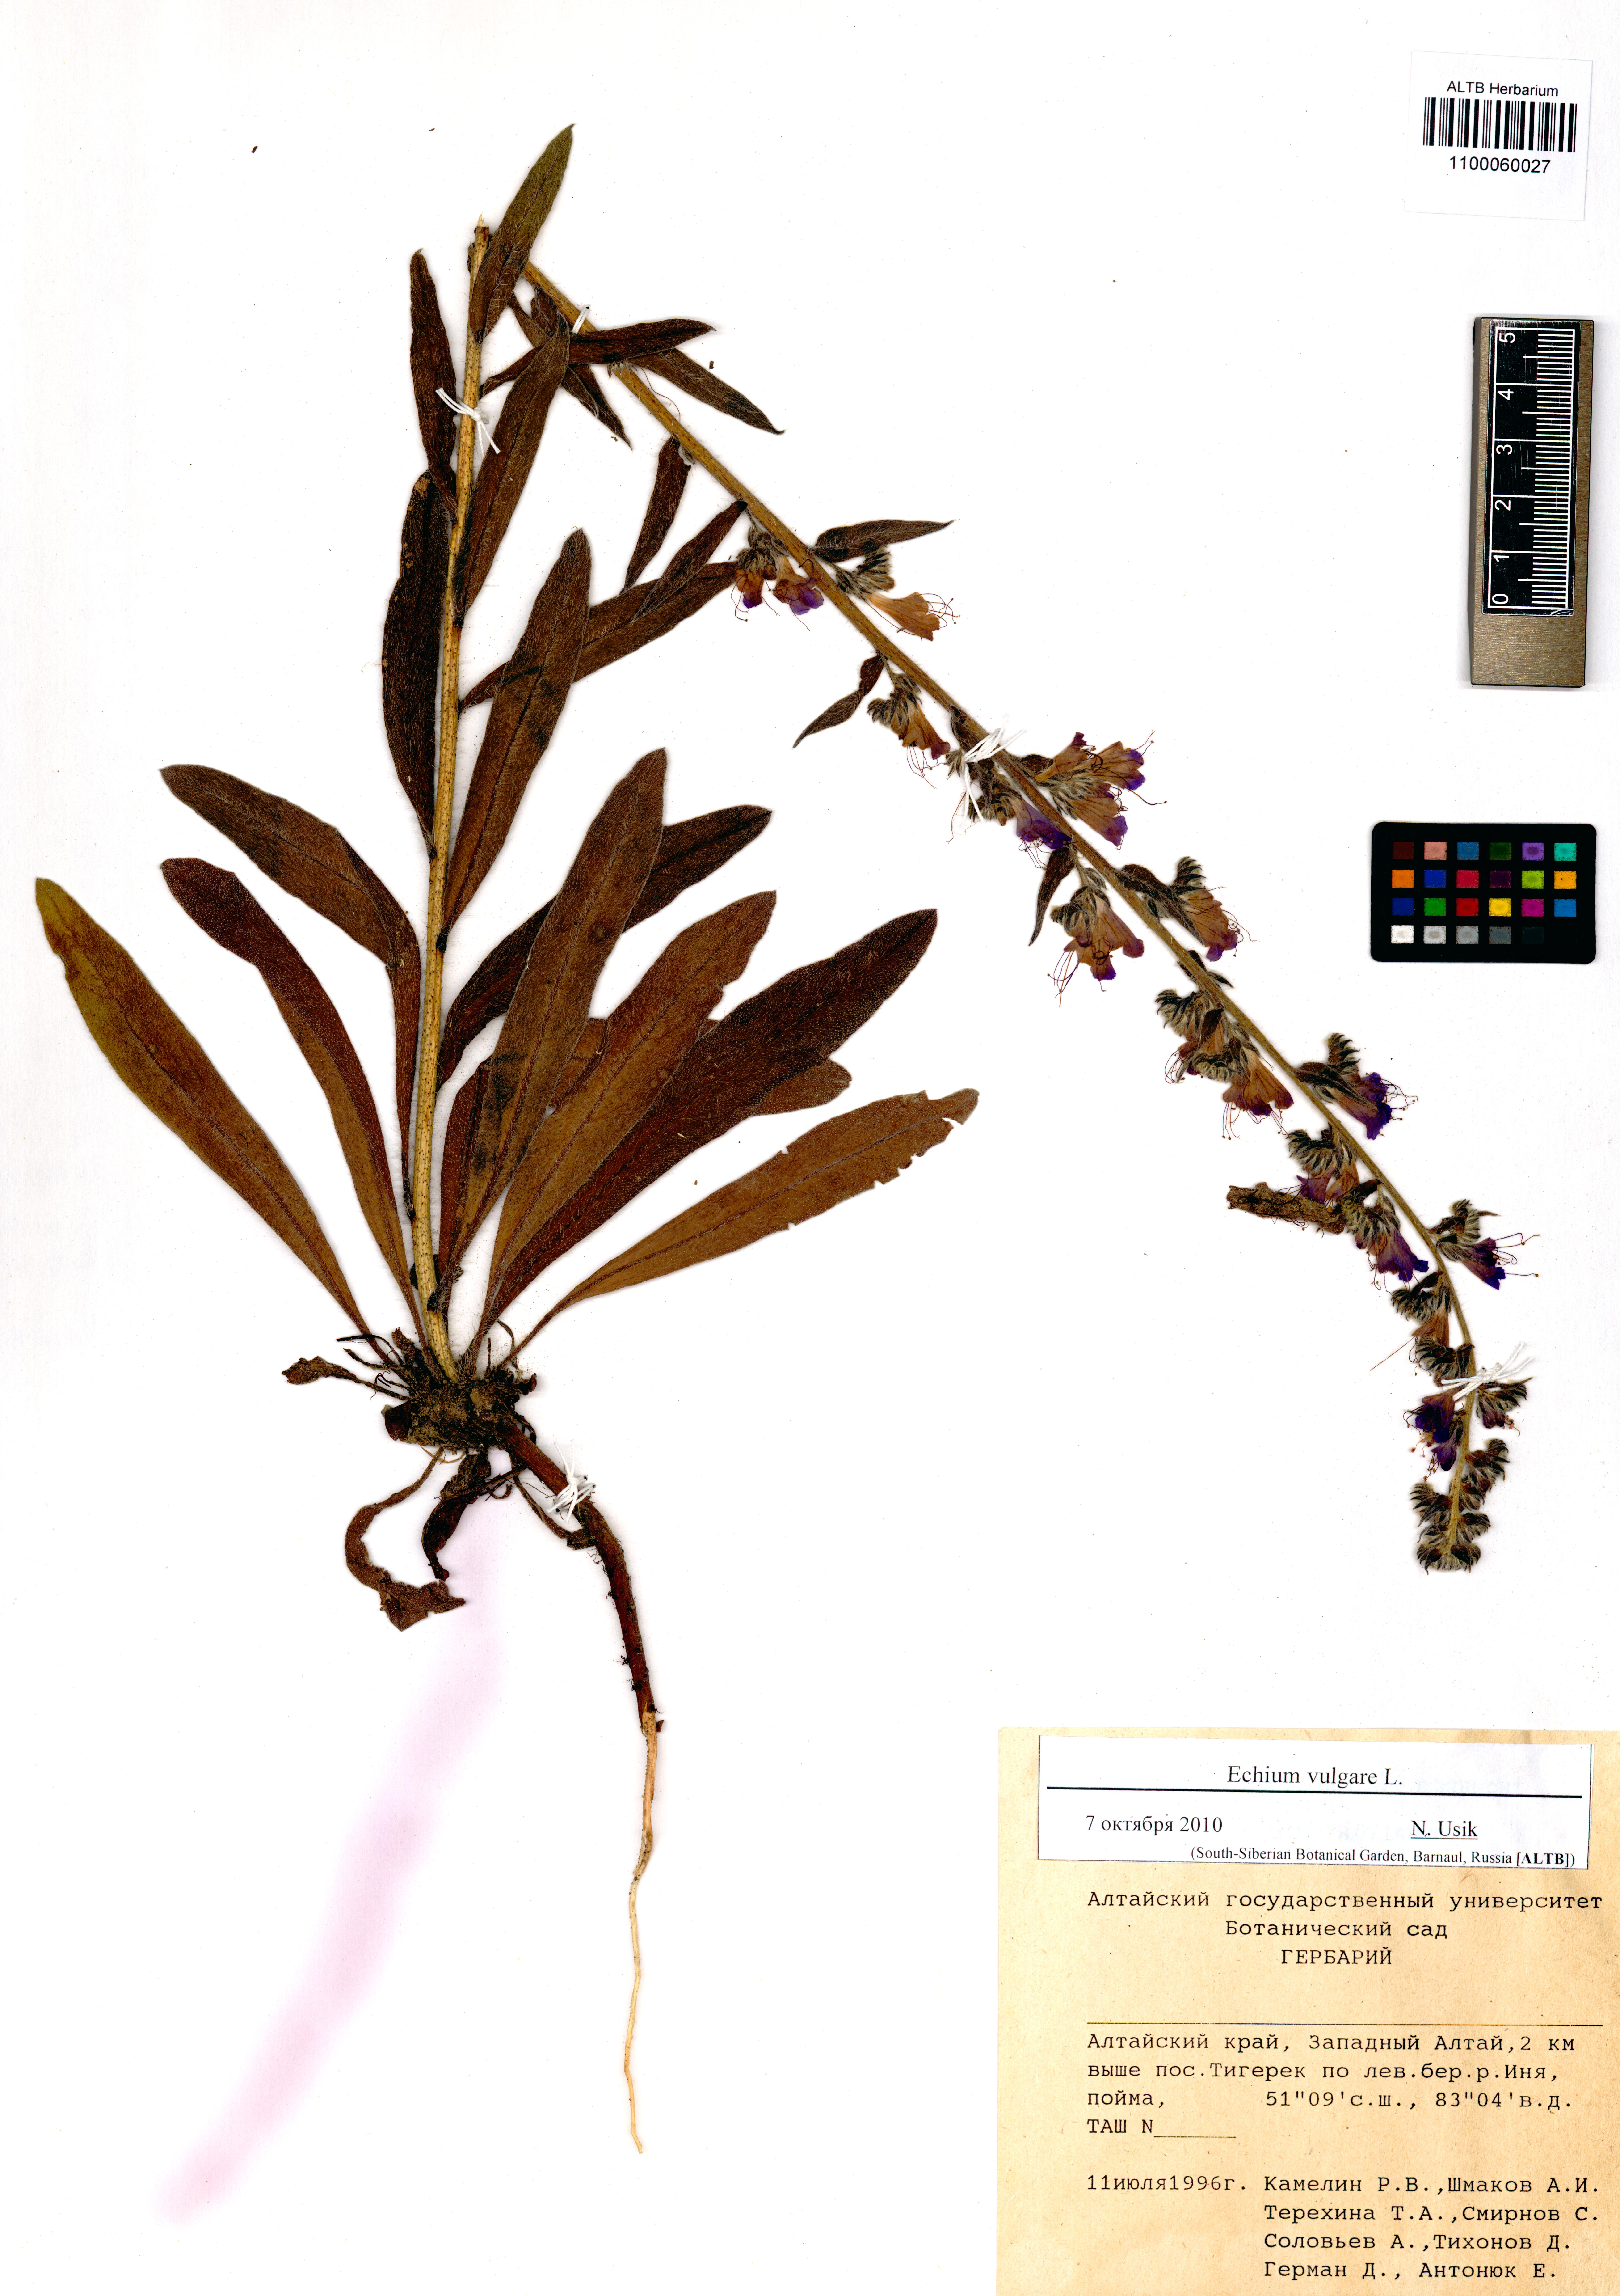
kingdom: Plantae
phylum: Tracheophyta
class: Magnoliopsida
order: Boraginales
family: Boraginaceae
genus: Echium
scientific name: Echium vulgare
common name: Common viper's bugloss
